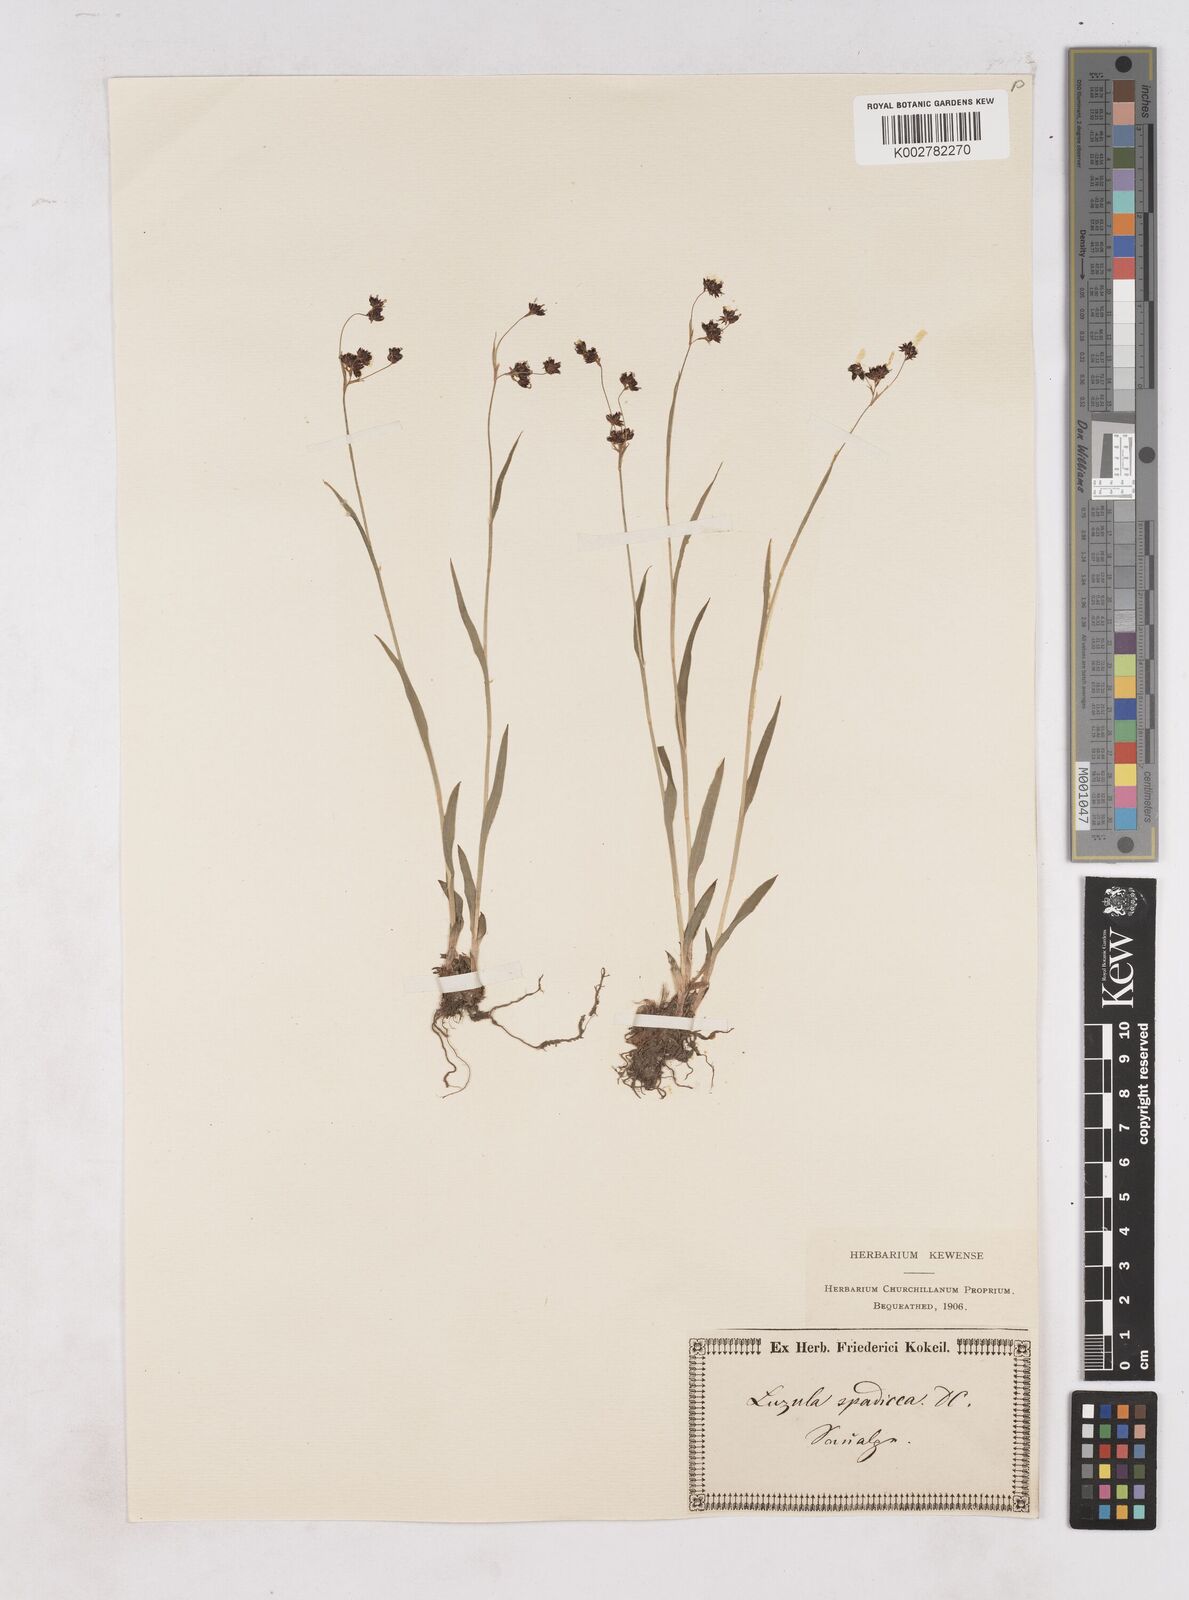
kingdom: Plantae
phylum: Tracheophyta
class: Liliopsida
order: Poales
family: Juncaceae
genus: Luzula
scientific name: Luzula alpinopilosa
